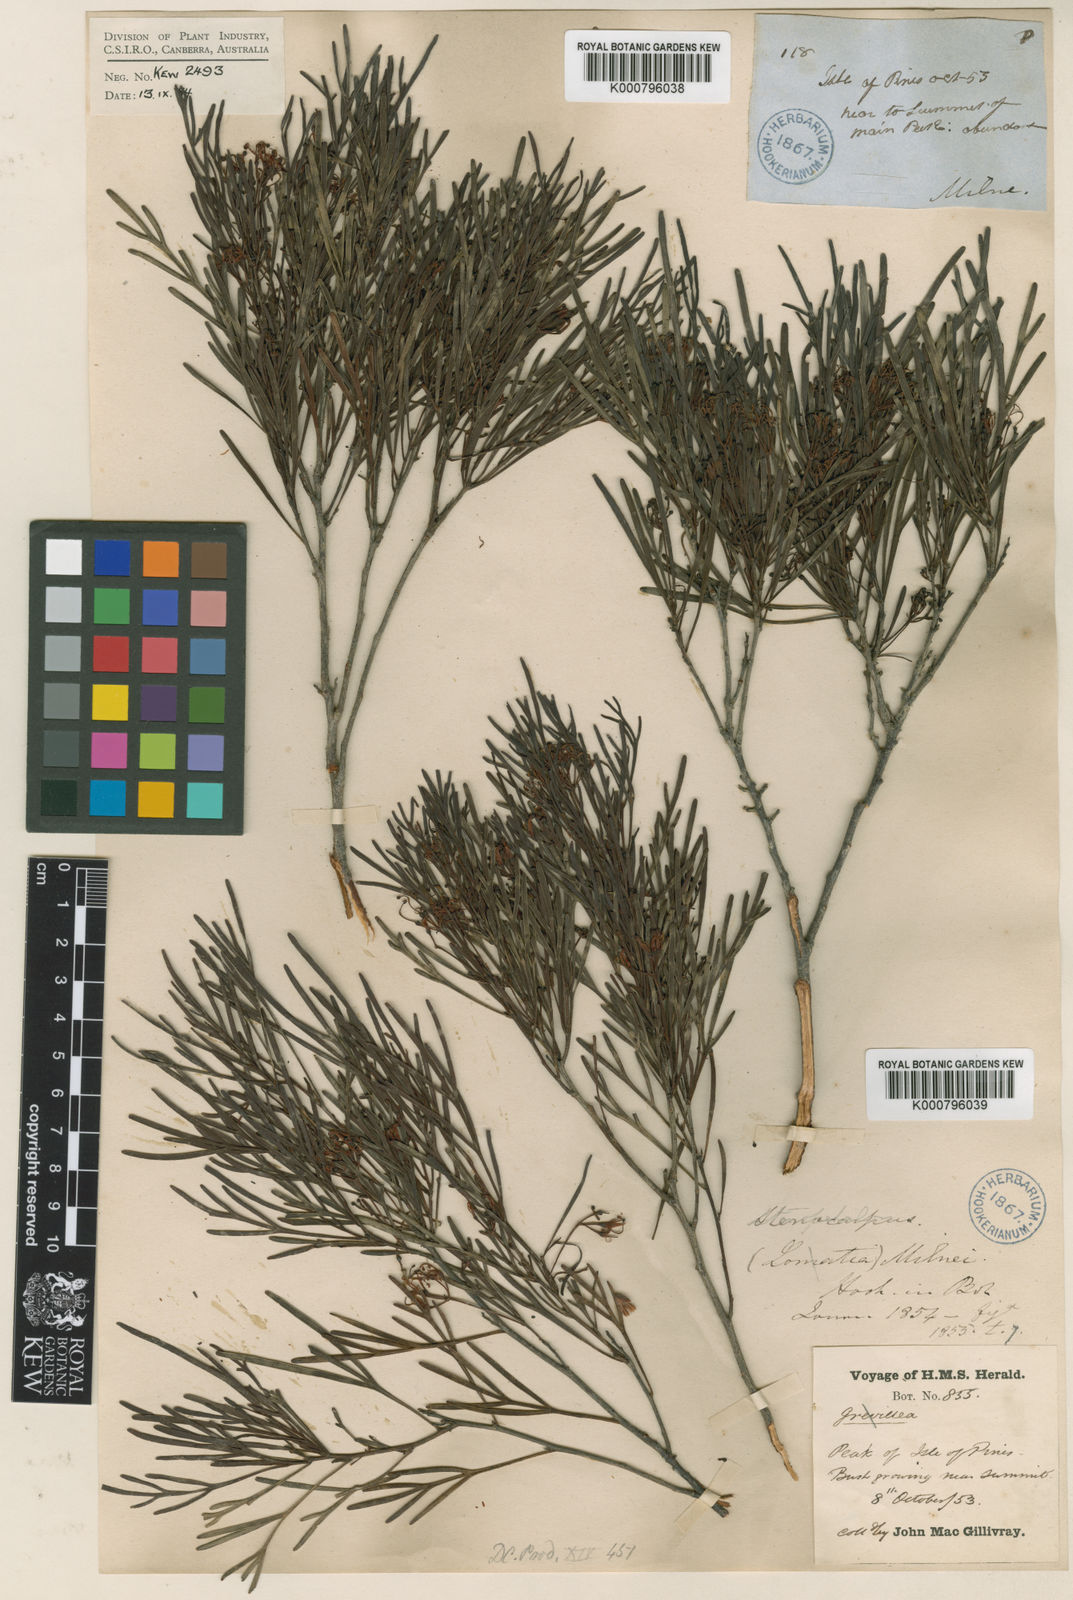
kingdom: Plantae
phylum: Tracheophyta
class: Magnoliopsida
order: Proteales
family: Proteaceae
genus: Stenocarpus
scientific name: Stenocarpus milnei
